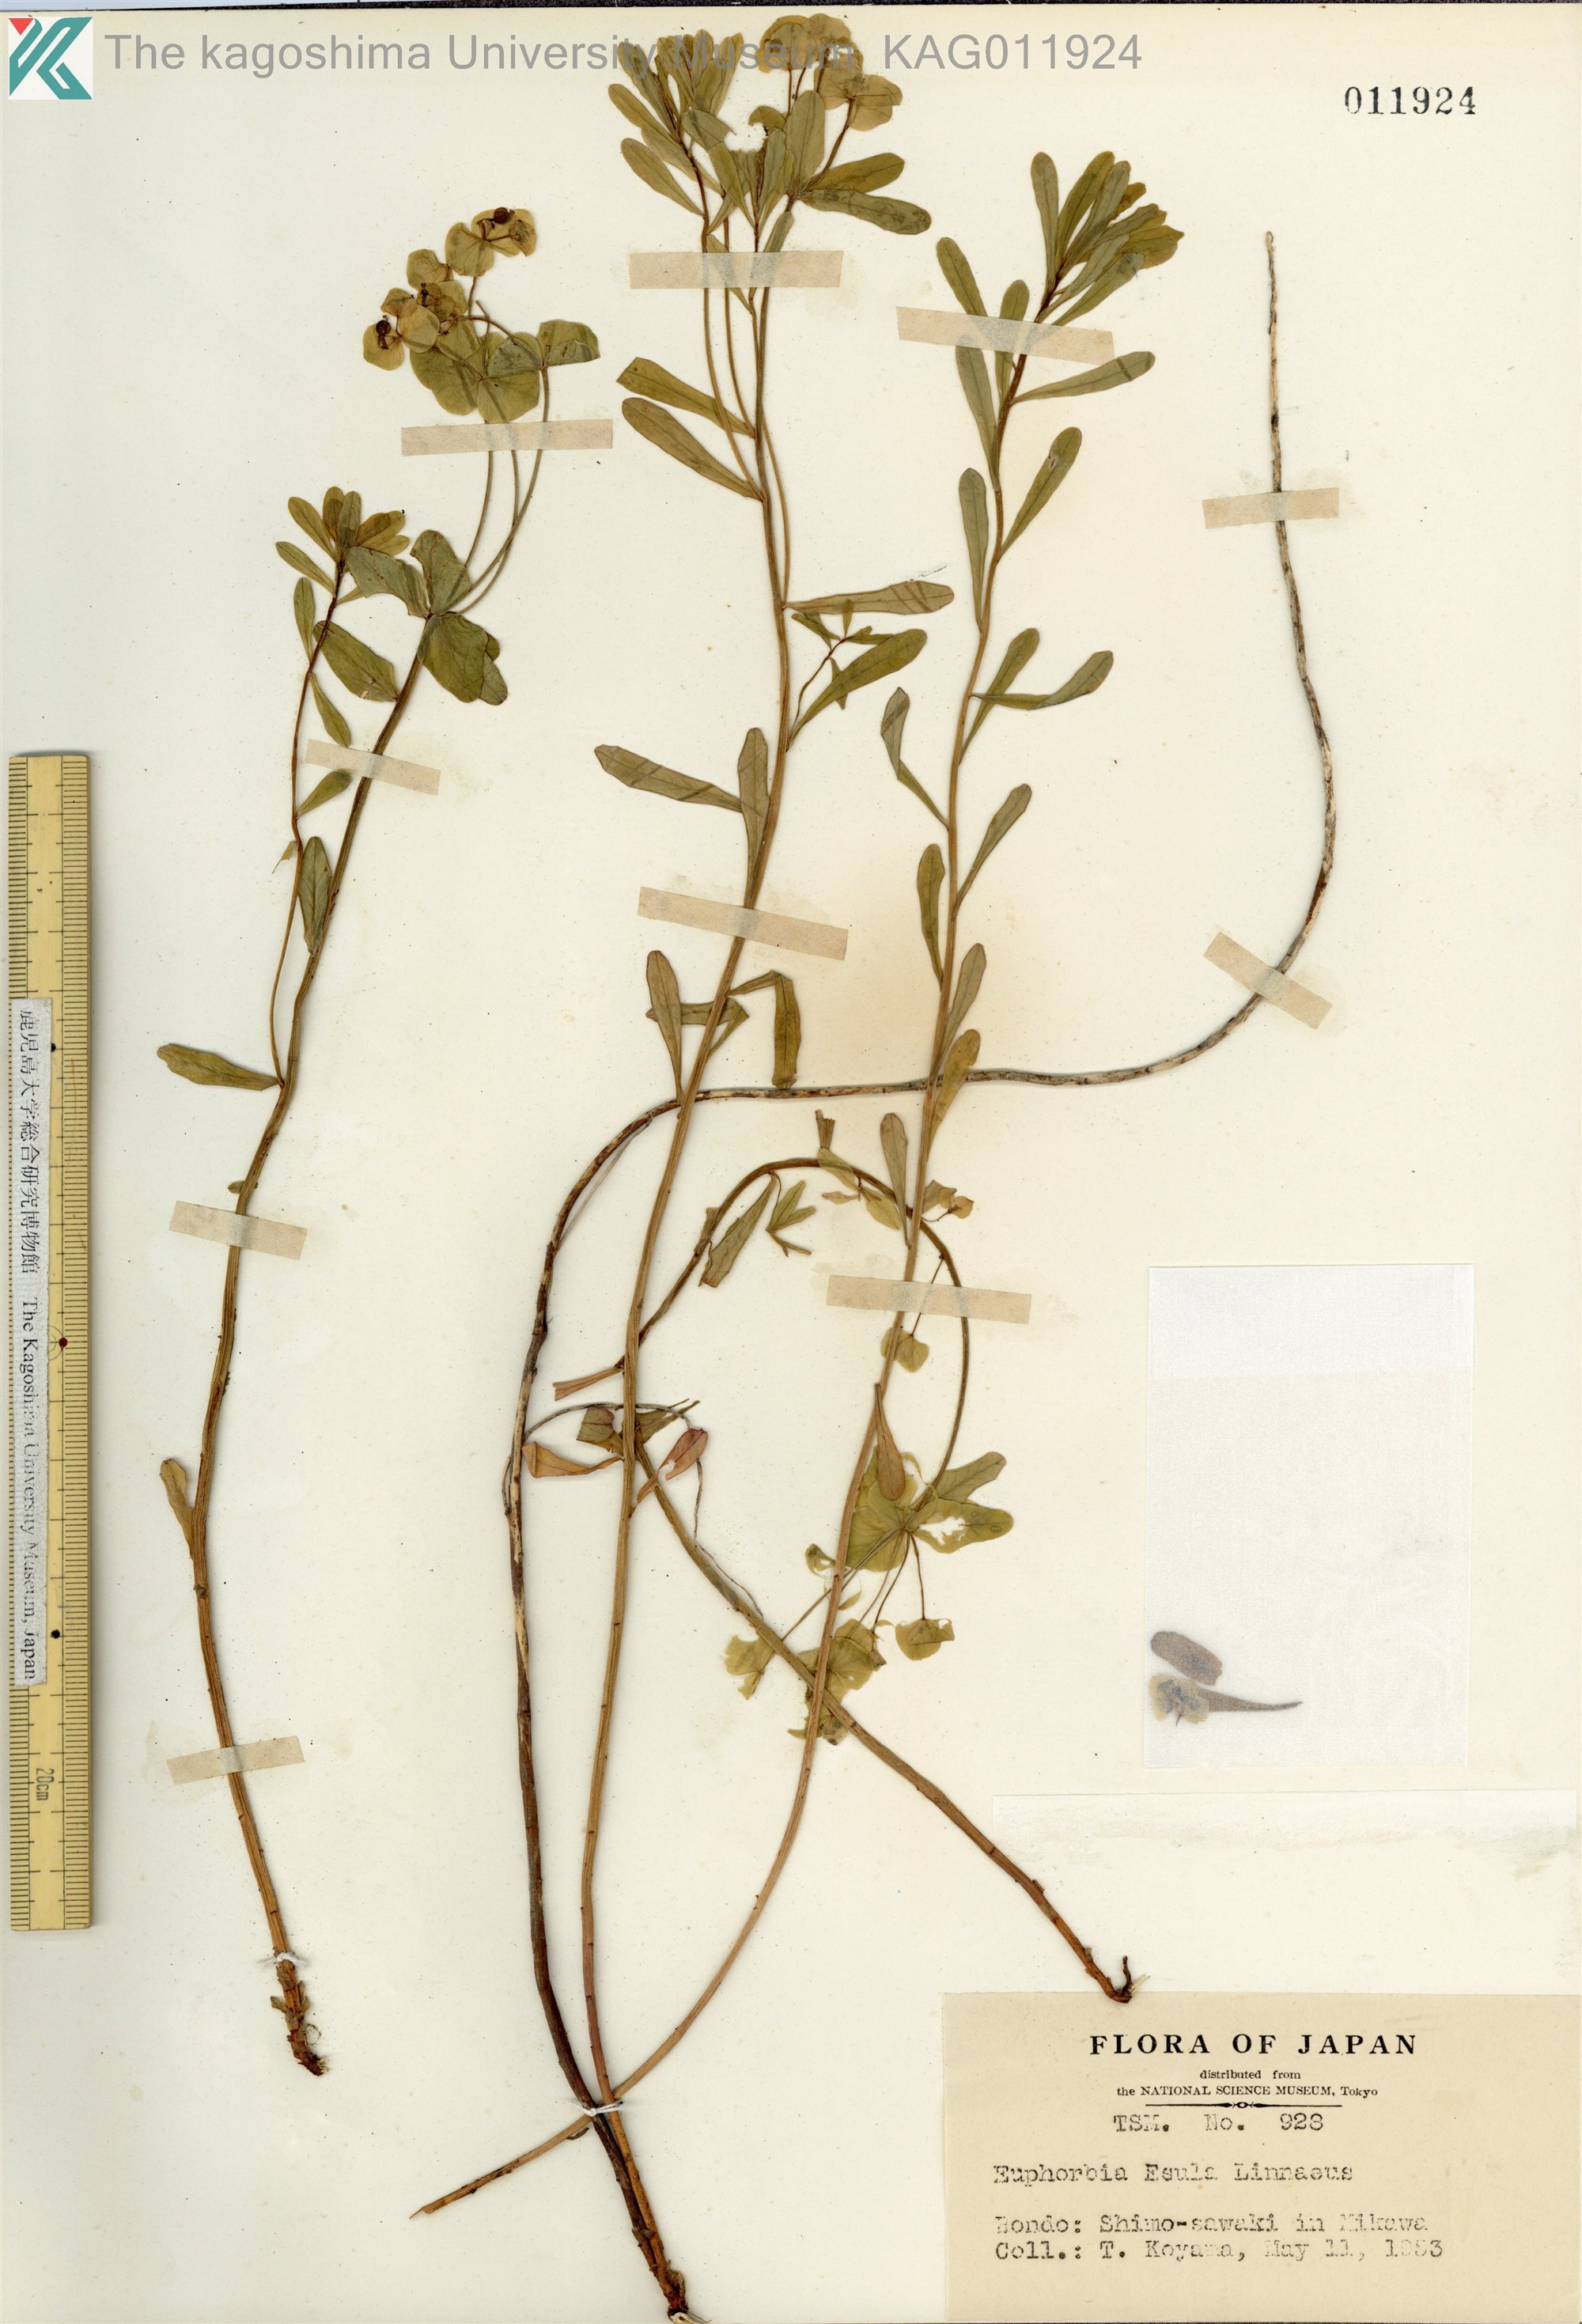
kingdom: Plantae
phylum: Tracheophyta
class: Magnoliopsida
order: Malpighiales
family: Euphorbiaceae
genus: Euphorbia
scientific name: Euphorbia
